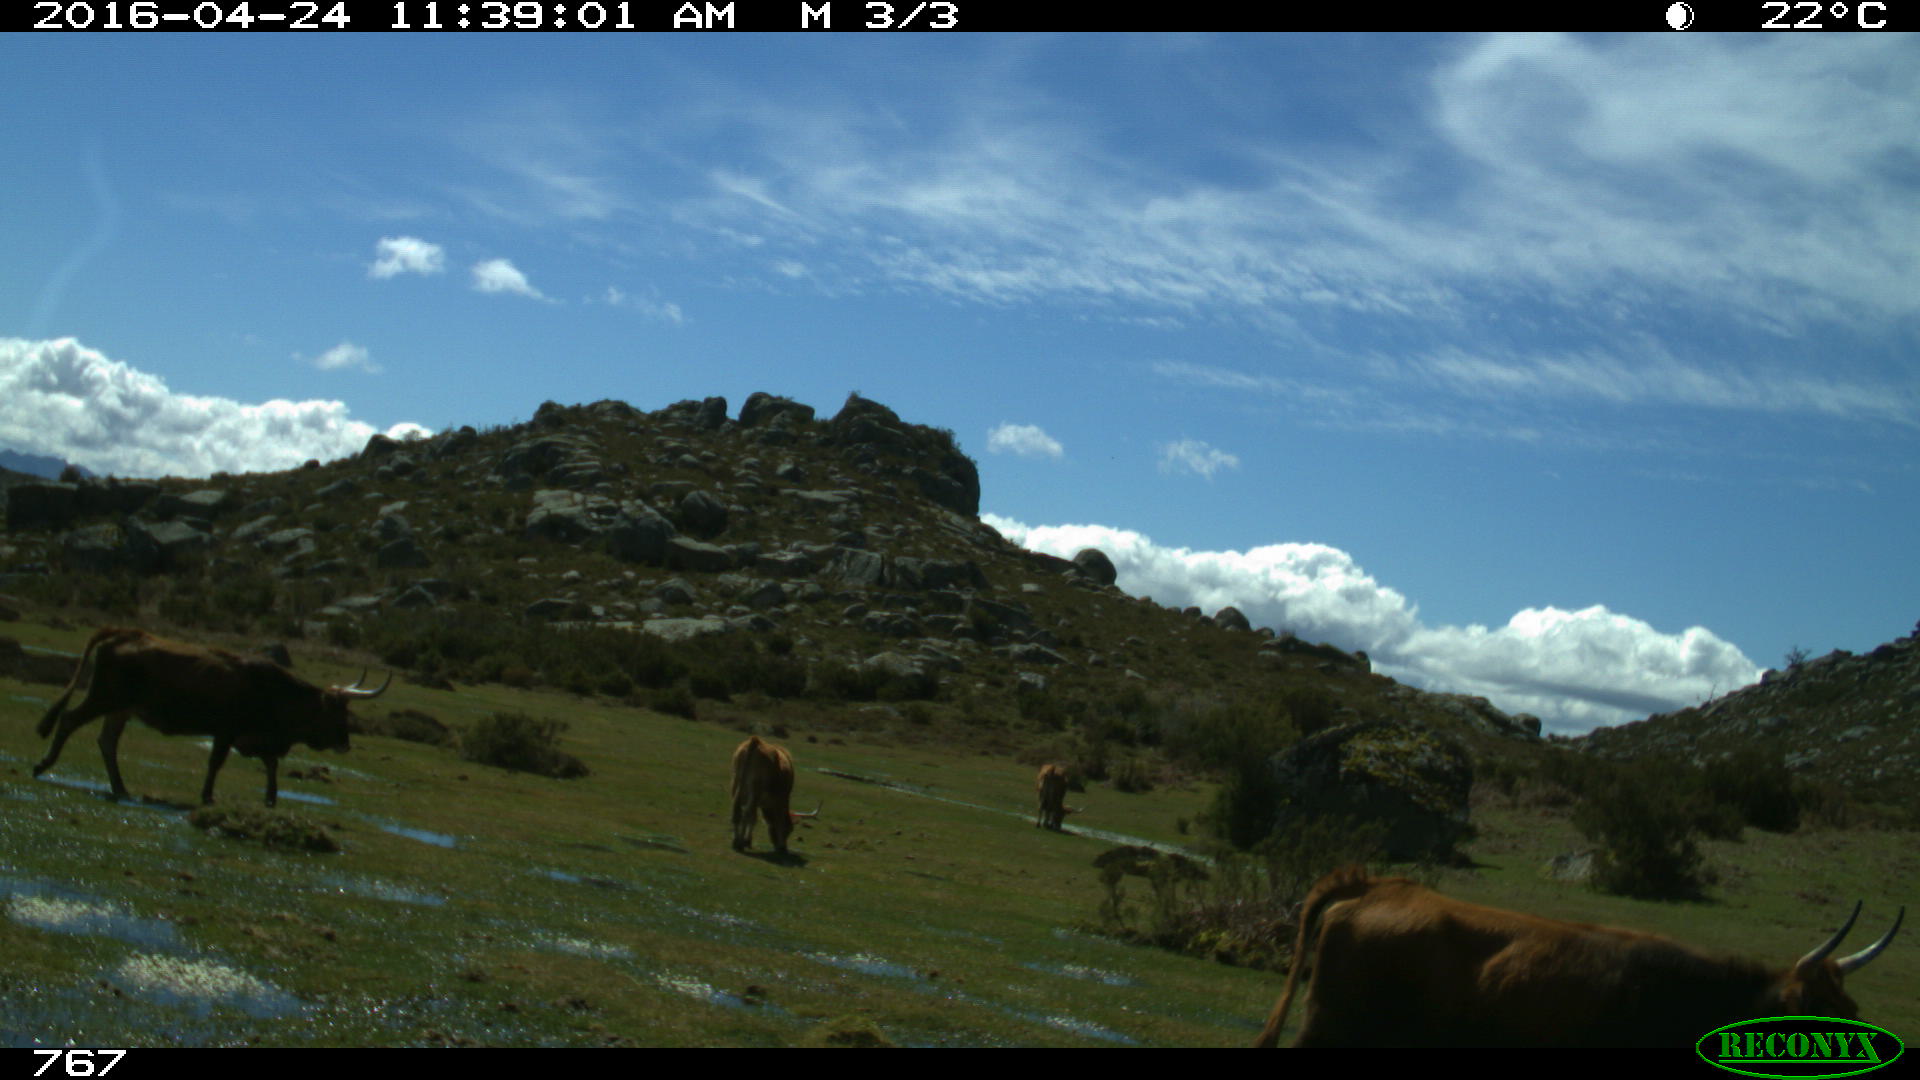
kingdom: Animalia
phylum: Chordata
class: Mammalia
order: Artiodactyla
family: Bovidae
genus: Bos
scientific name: Bos taurus
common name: Domesticated cattle
